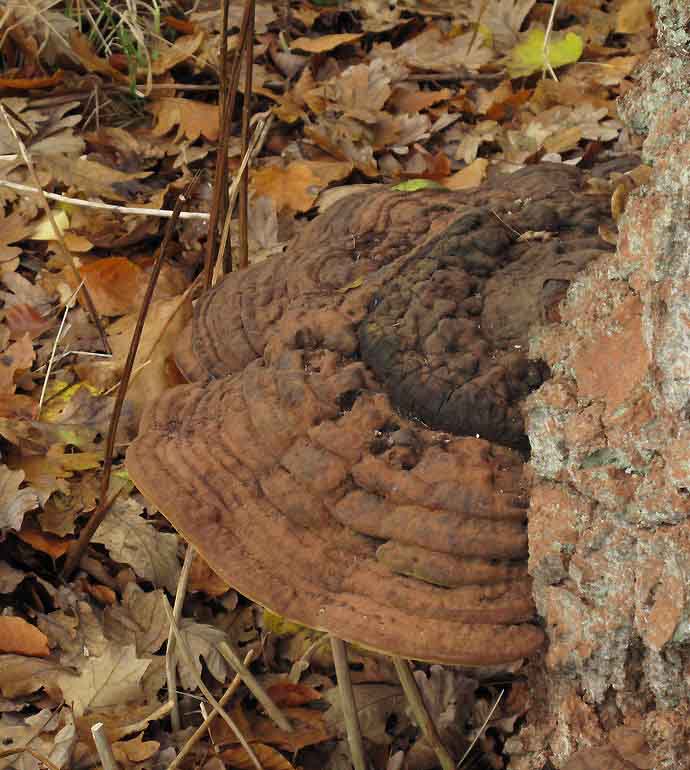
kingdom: Fungi
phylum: Basidiomycota
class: Agaricomycetes
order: Polyporales
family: Polyporaceae
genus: Ganoderma
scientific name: Ganoderma pfeifferi
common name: kobberrød lakporesvamp
